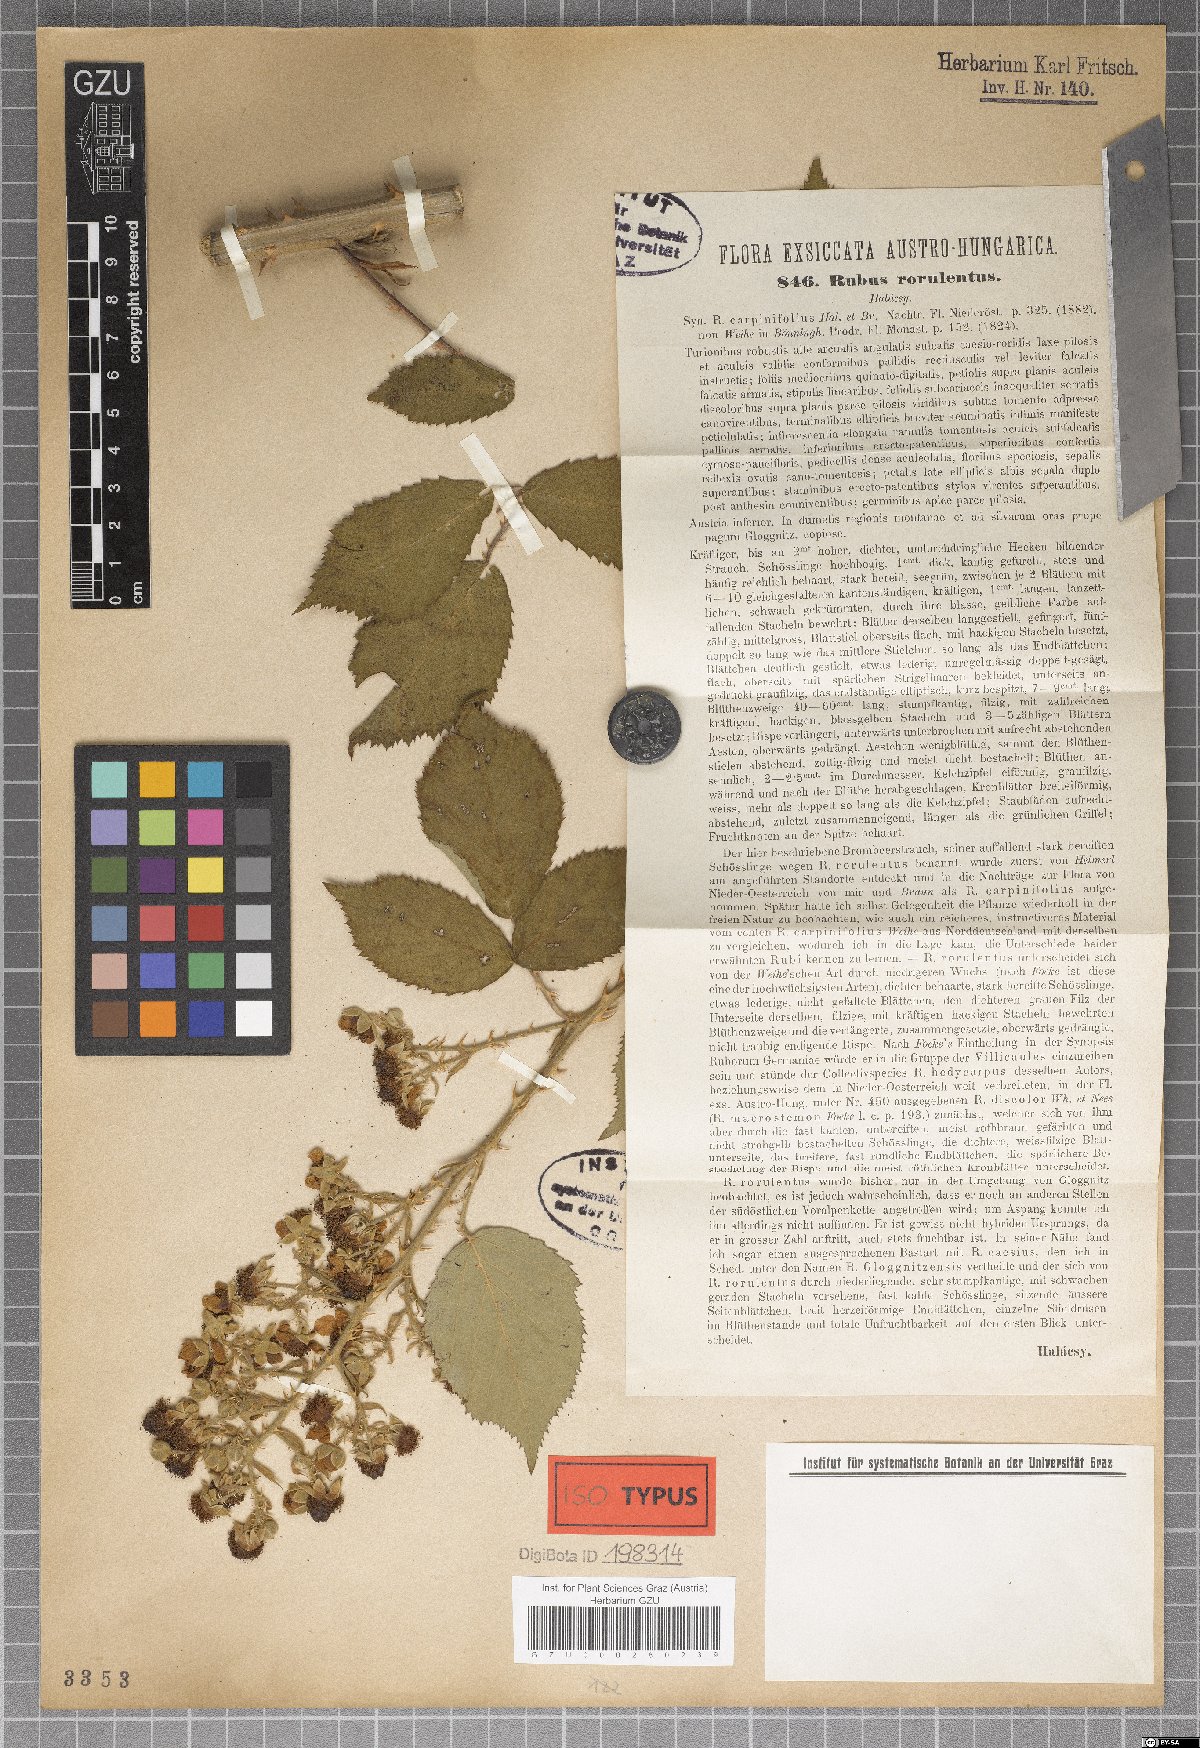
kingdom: Plantae
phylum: Tracheophyta
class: Magnoliopsida
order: Rosales
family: Rosaceae
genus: Rubus
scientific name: Rubus rorulentus
